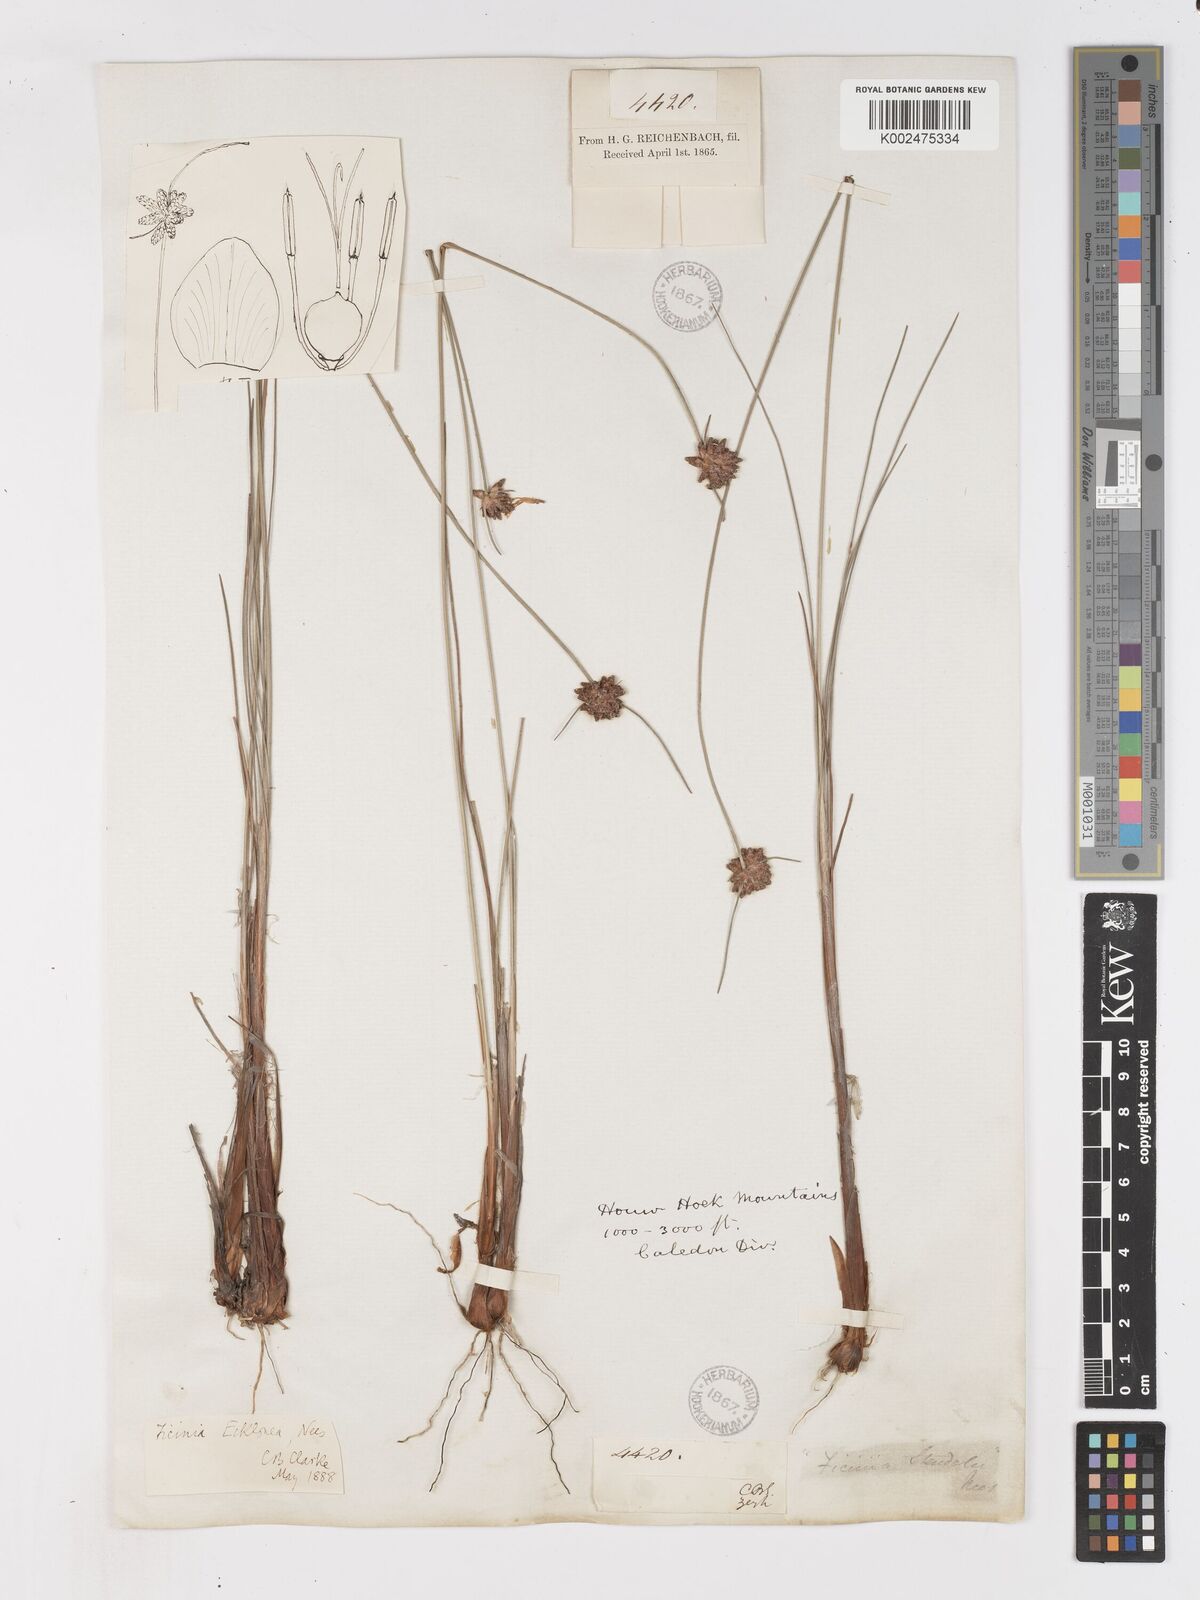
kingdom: Plantae
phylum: Tracheophyta
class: Liliopsida
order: Poales
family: Cyperaceae
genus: Ficinia
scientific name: Ficinia ecklonea
